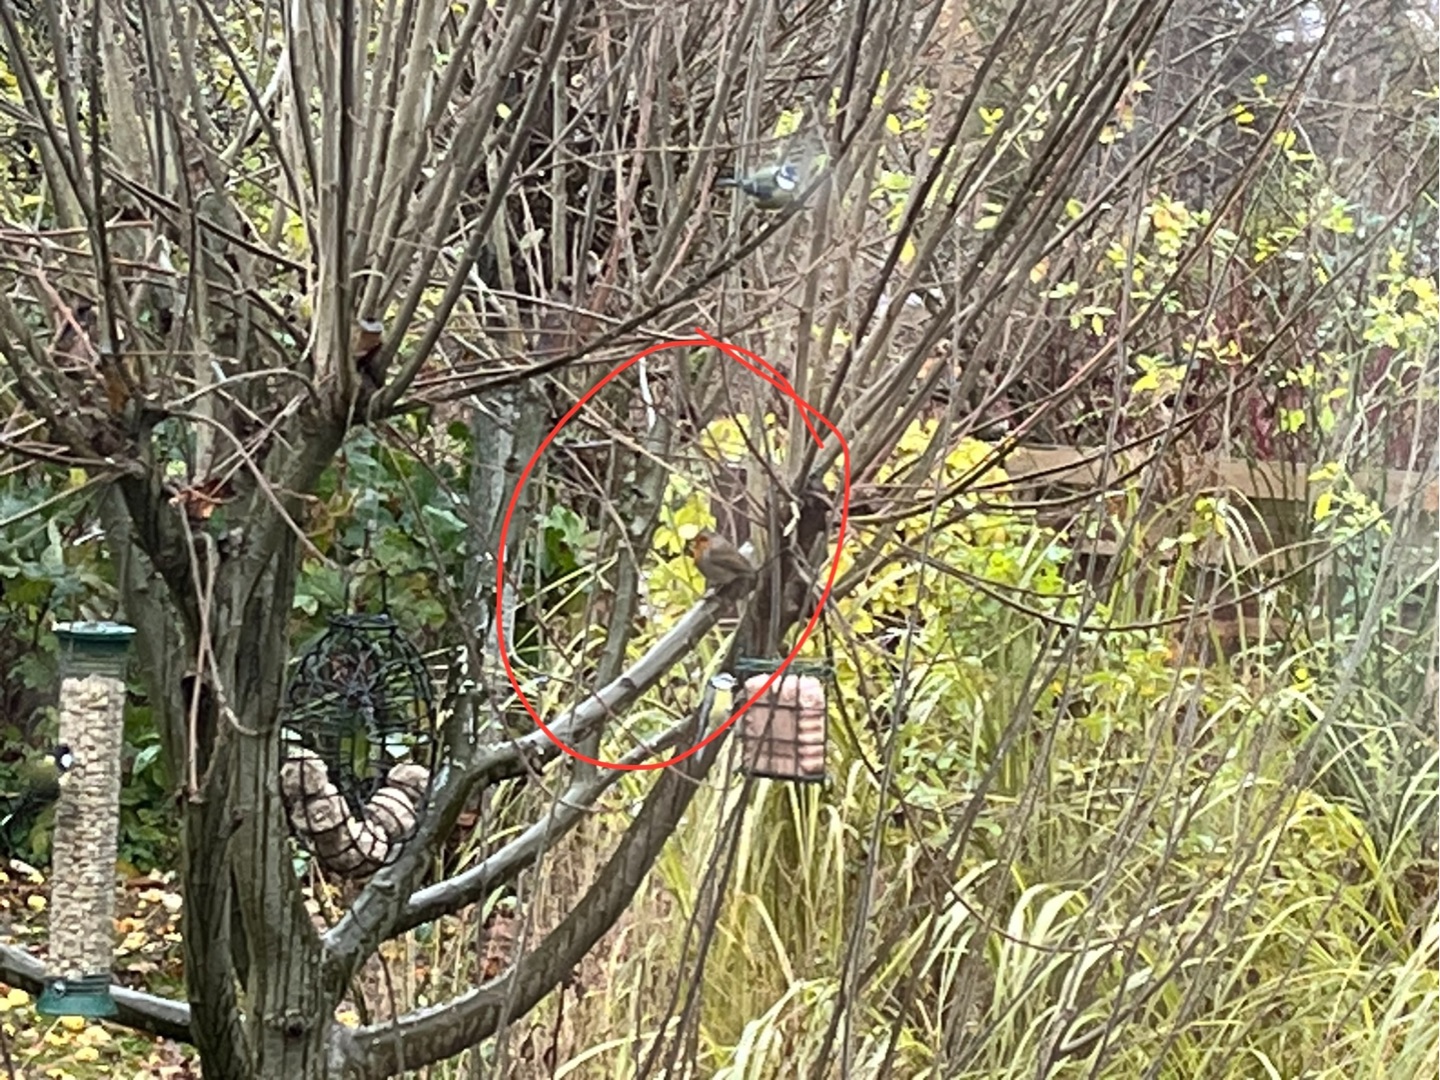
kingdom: Animalia
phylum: Chordata
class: Aves
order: Passeriformes
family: Muscicapidae
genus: Erithacus
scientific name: Erithacus rubecula
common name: Rødhals/rødkælk
